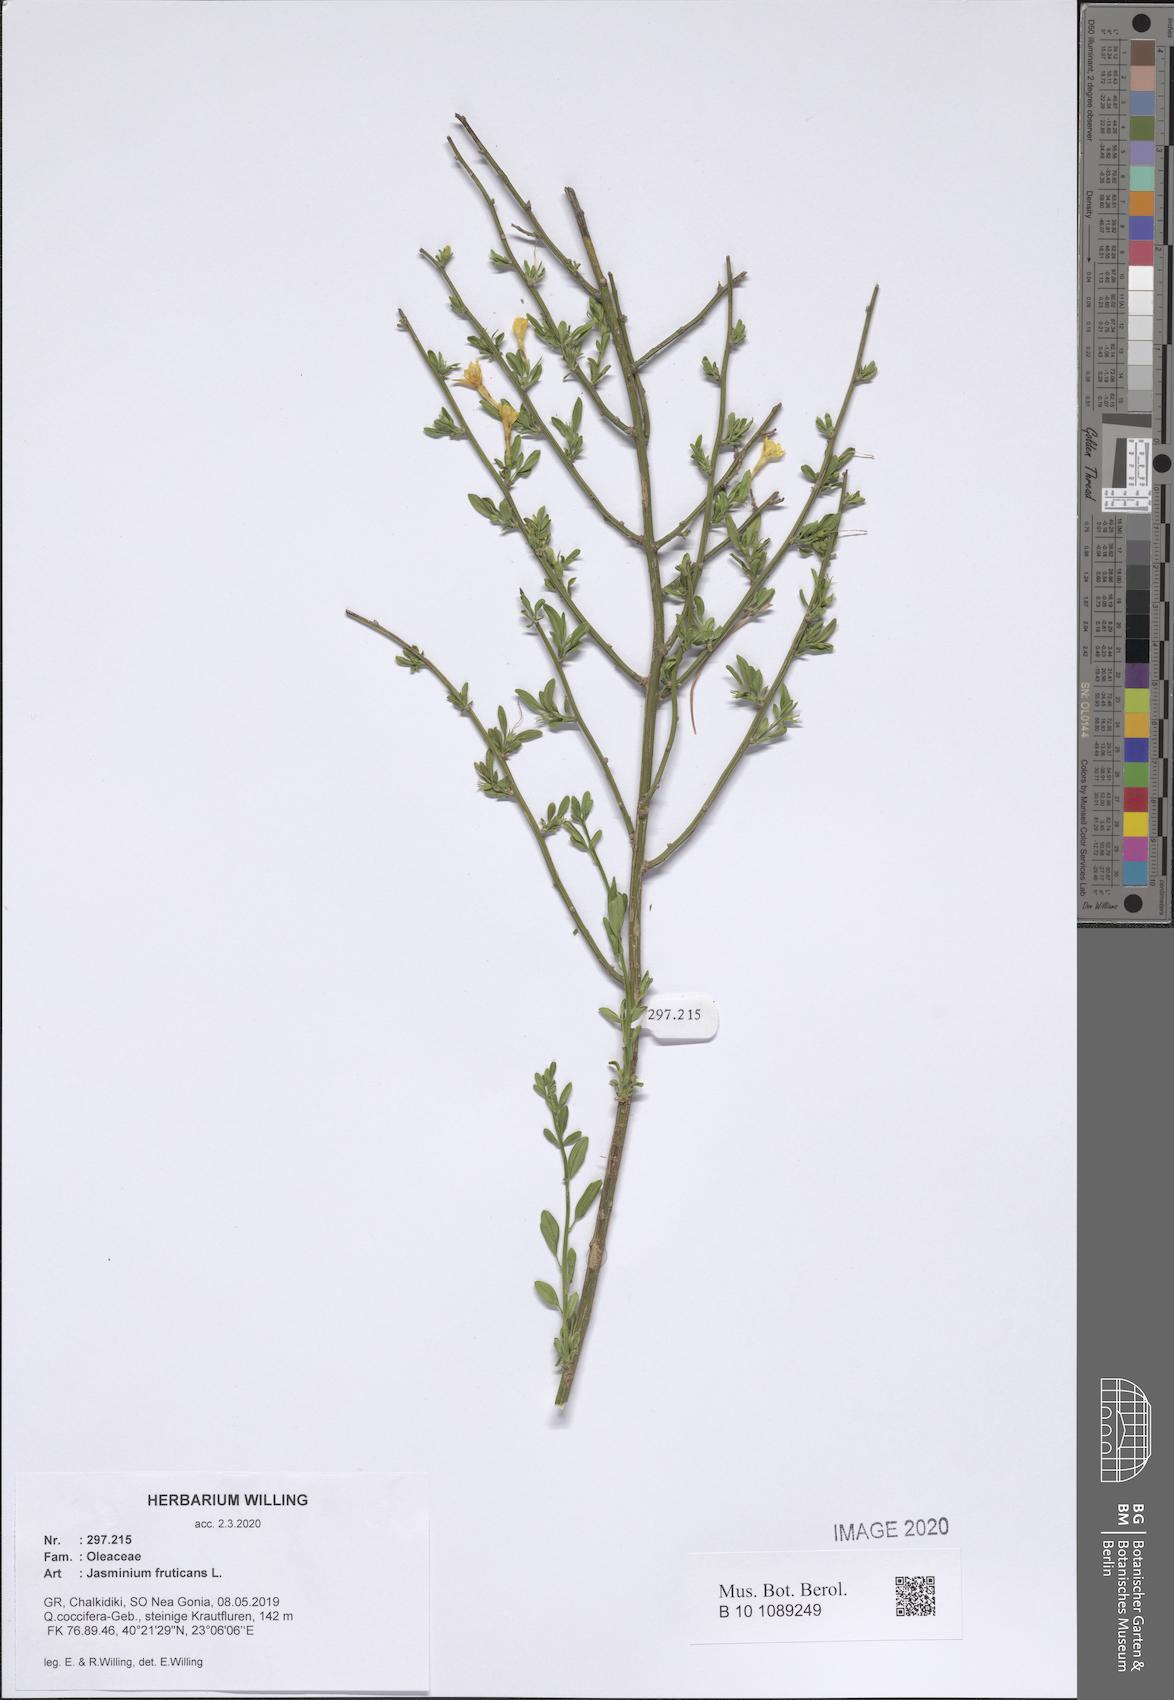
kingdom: Plantae
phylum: Tracheophyta
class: Magnoliopsida
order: Lamiales
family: Oleaceae
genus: Chrysojasminum
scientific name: Chrysojasminum fruticans
